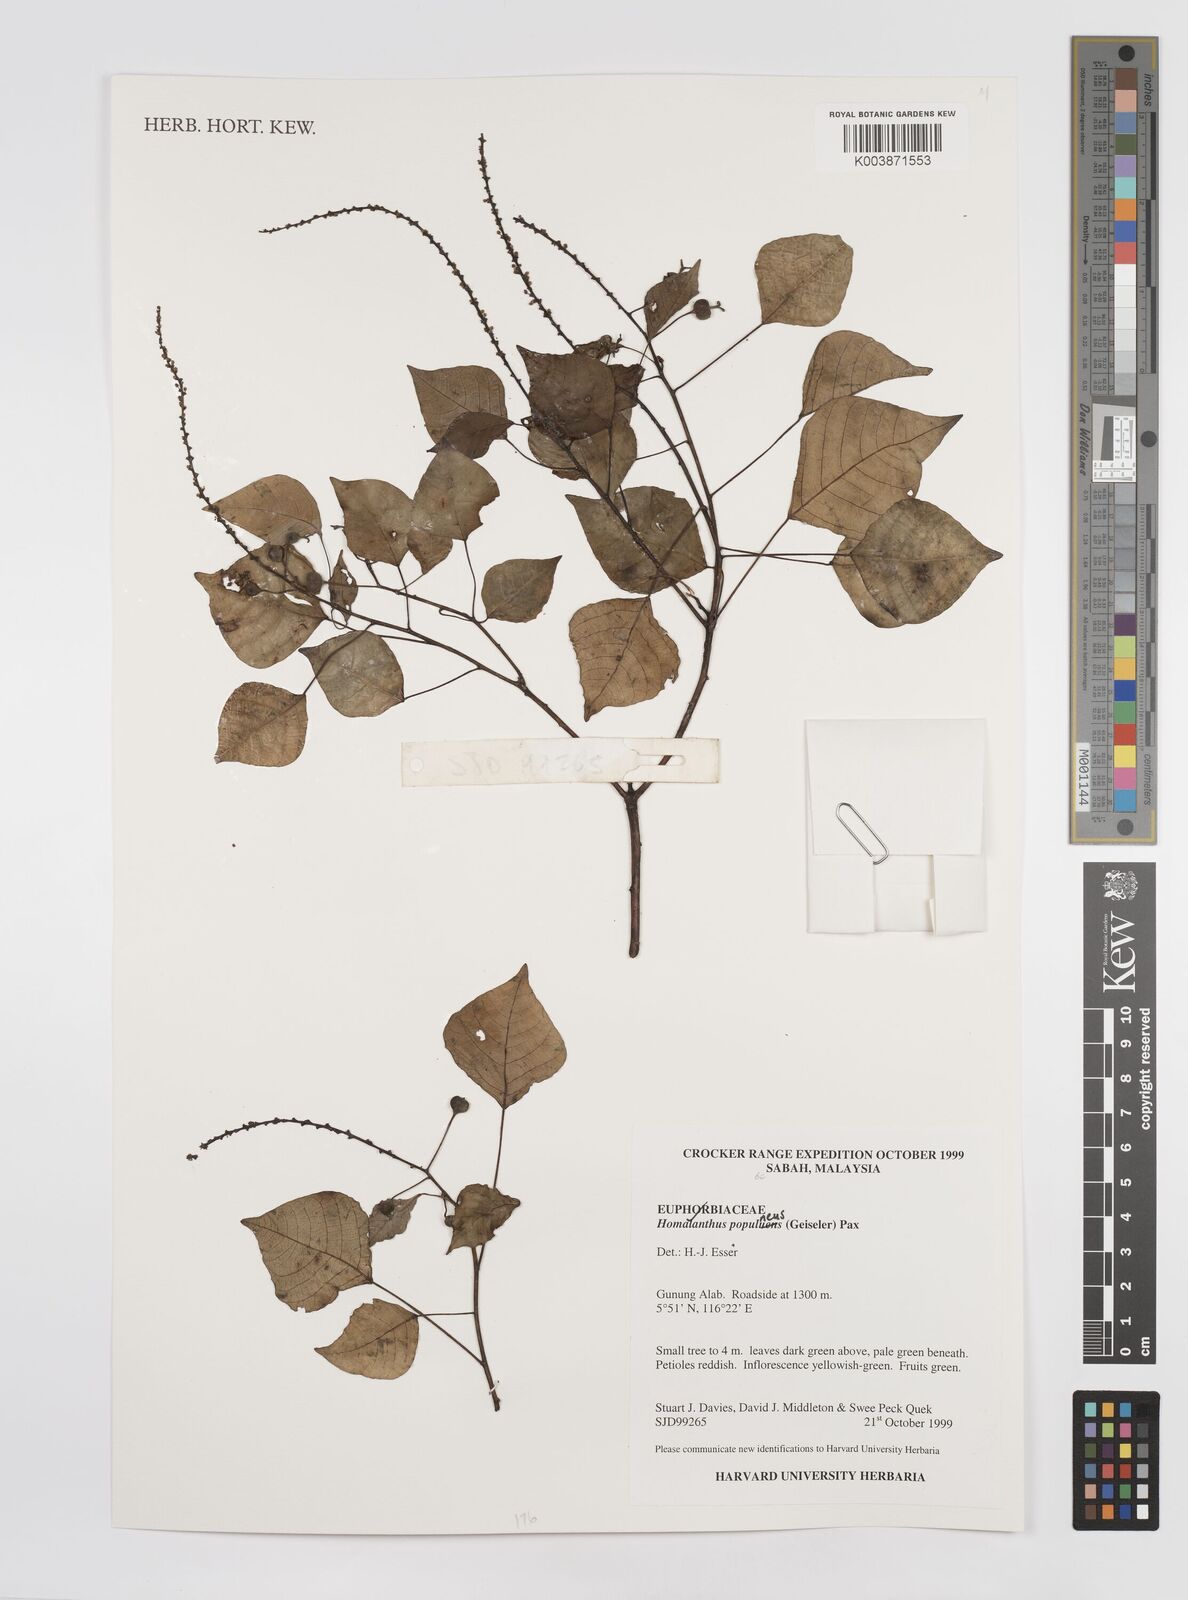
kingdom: Plantae
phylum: Tracheophyta
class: Magnoliopsida
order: Malpighiales
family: Euphorbiaceae
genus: Homalanthus
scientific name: Homalanthus populneus
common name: Spurge
